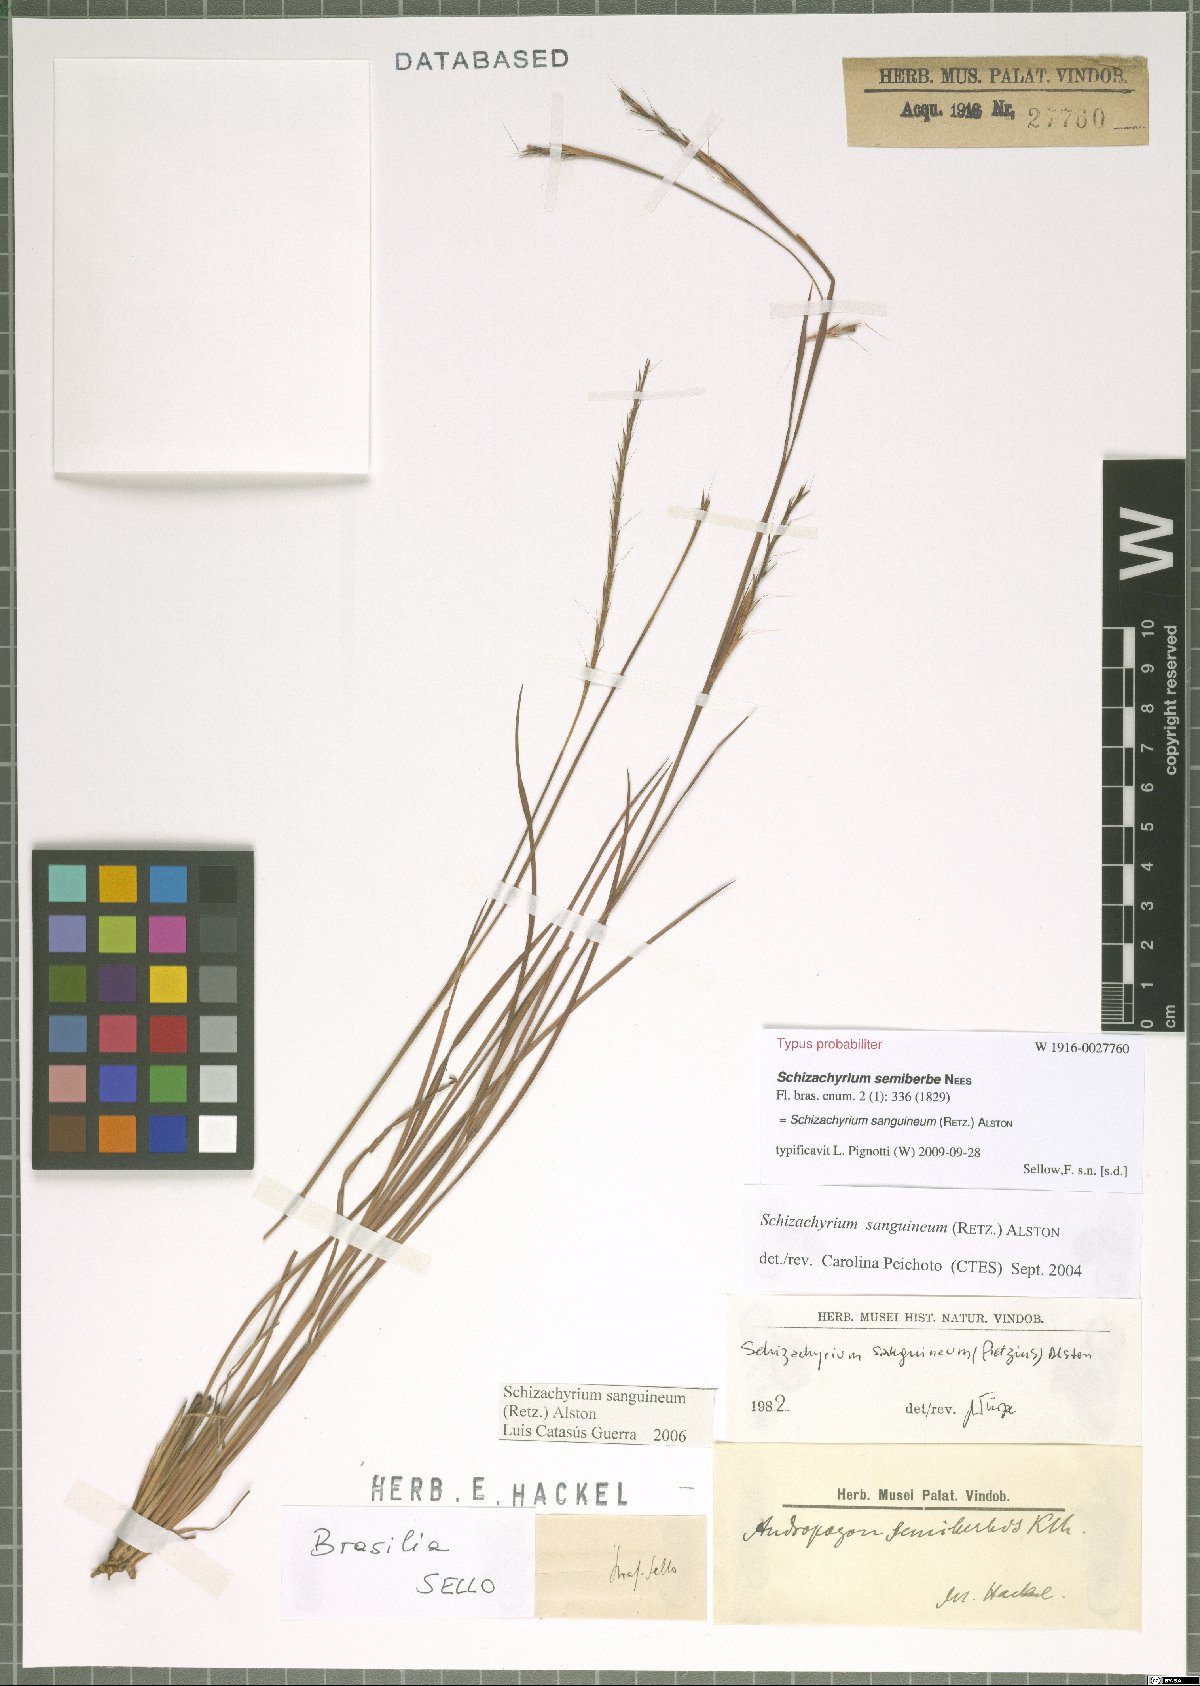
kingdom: Plantae
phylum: Tracheophyta
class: Liliopsida
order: Poales
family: Poaceae
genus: Schizachyrium
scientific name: Schizachyrium sanguineum
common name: Crimson bluestem
